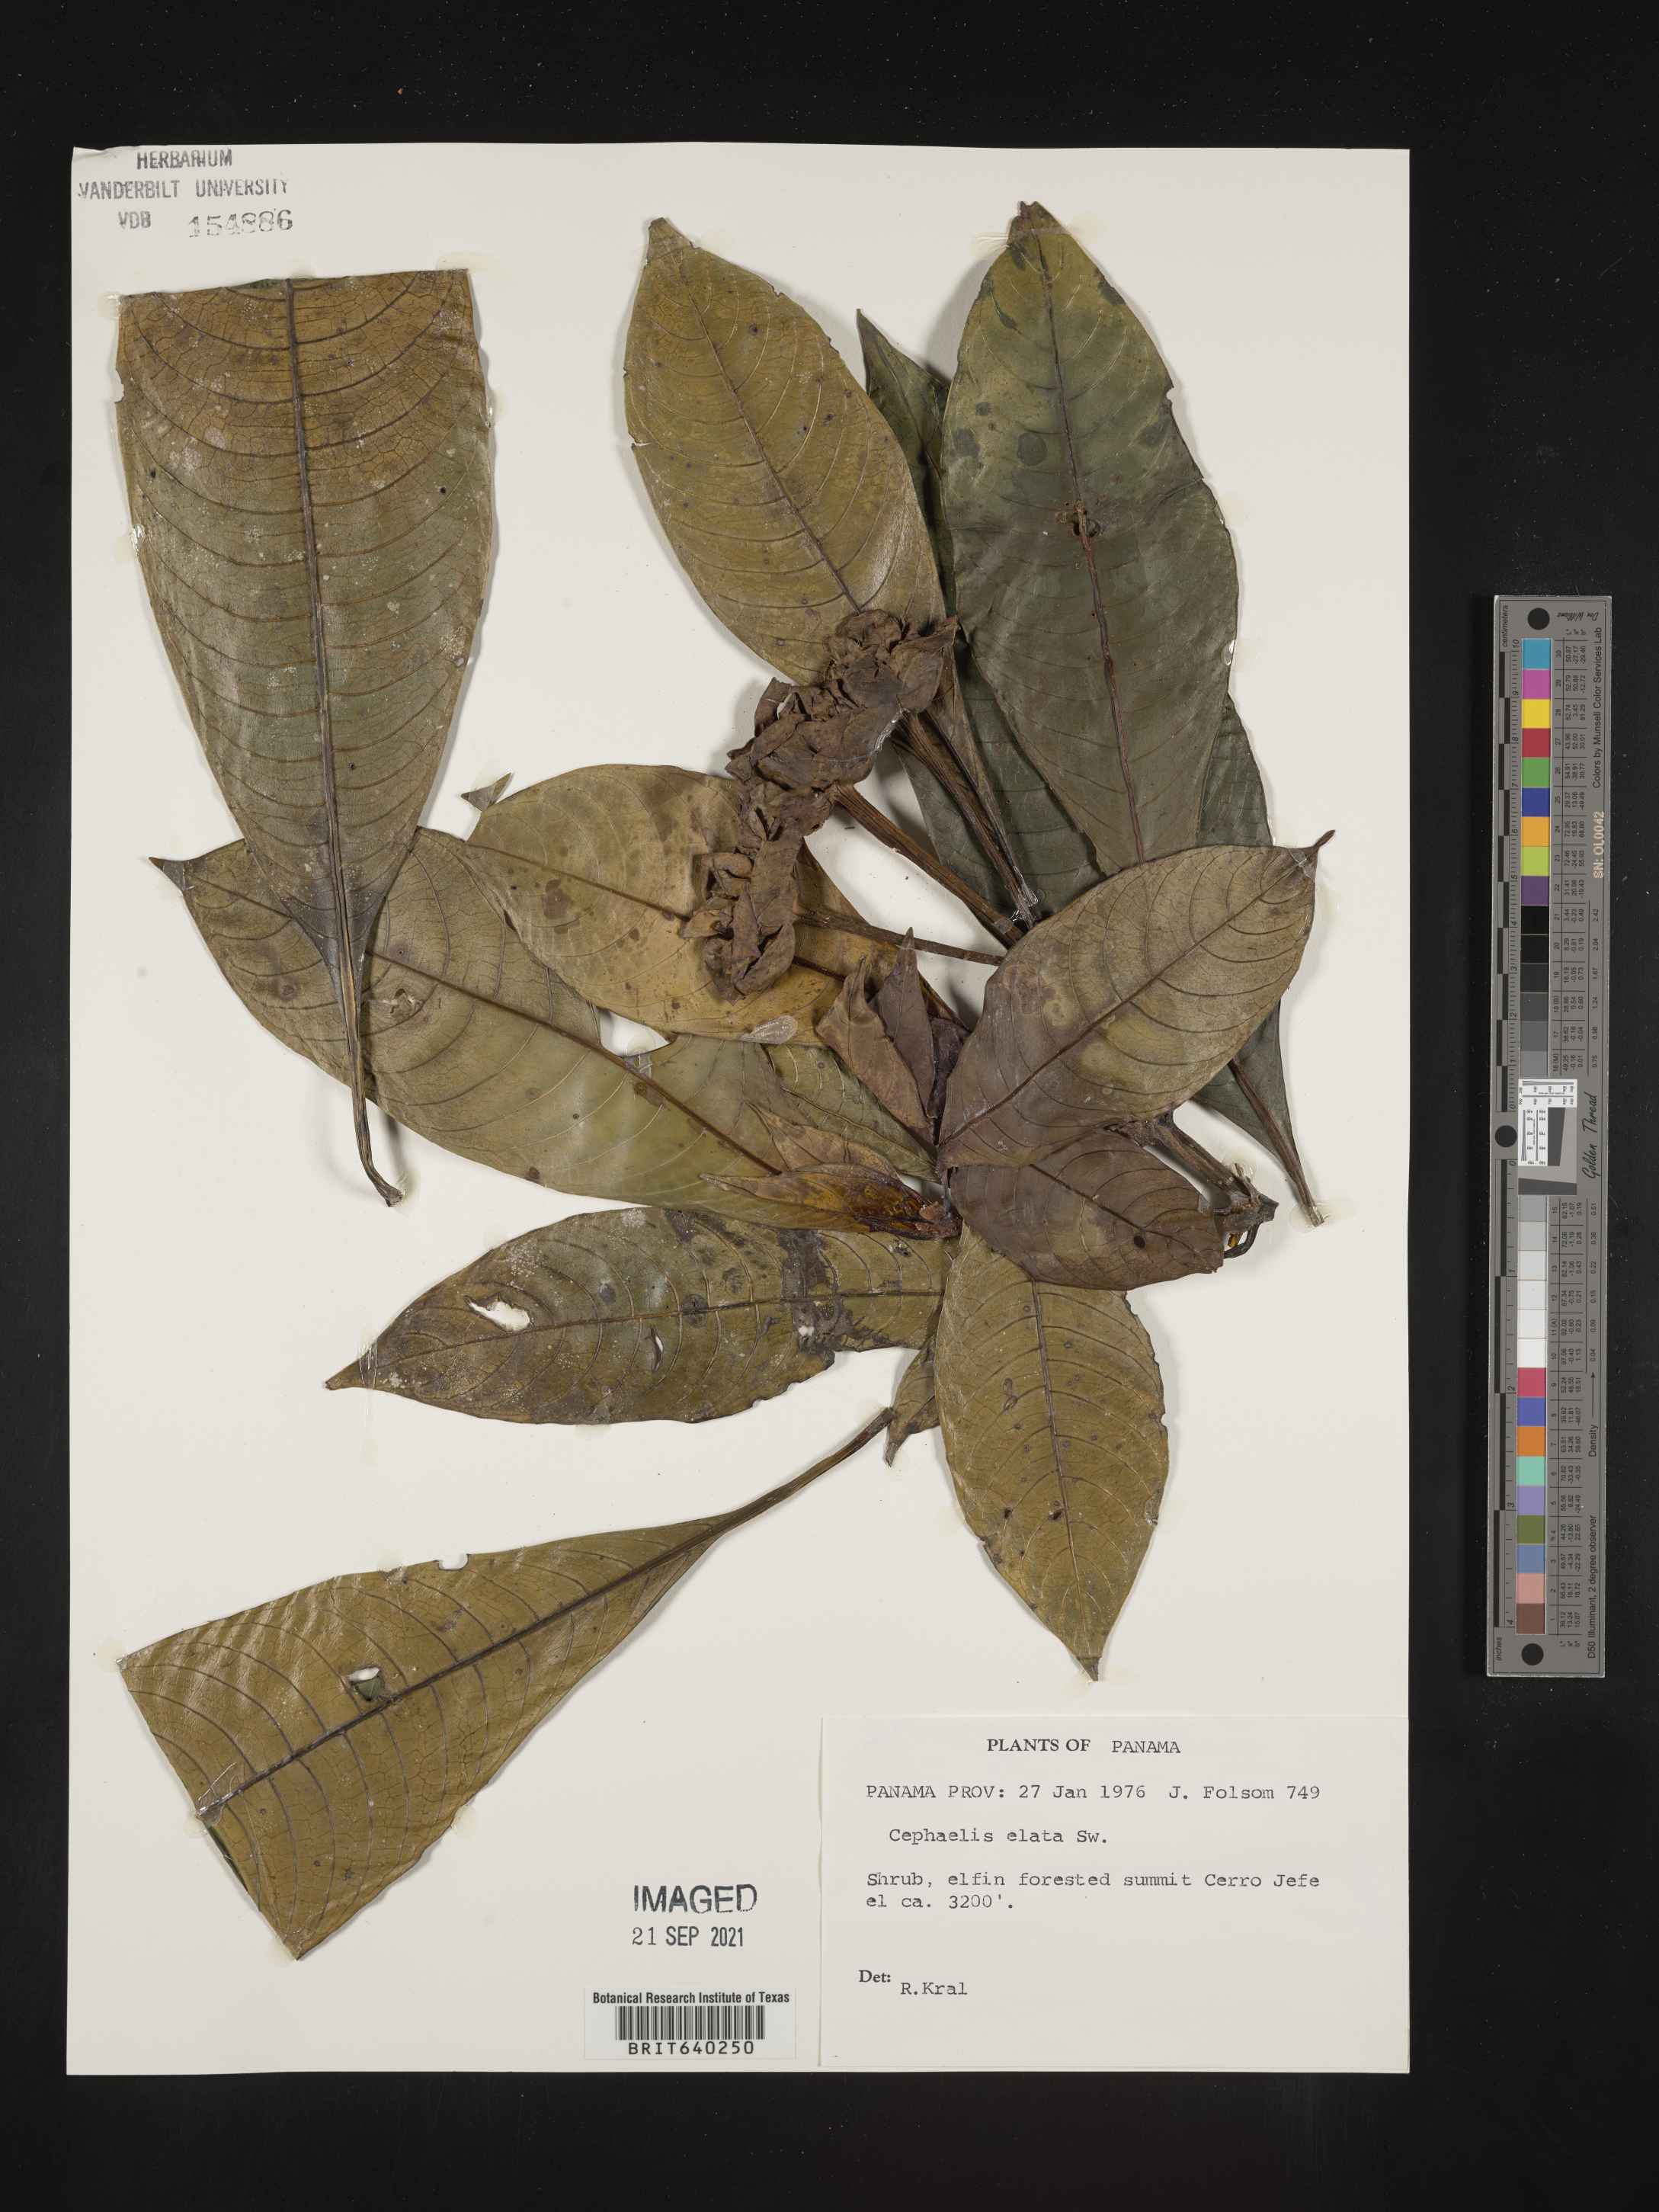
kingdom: Plantae
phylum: Tracheophyta
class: Magnoliopsida
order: Gentianales
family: Rubiaceae
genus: Psychotria
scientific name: Psychotria
